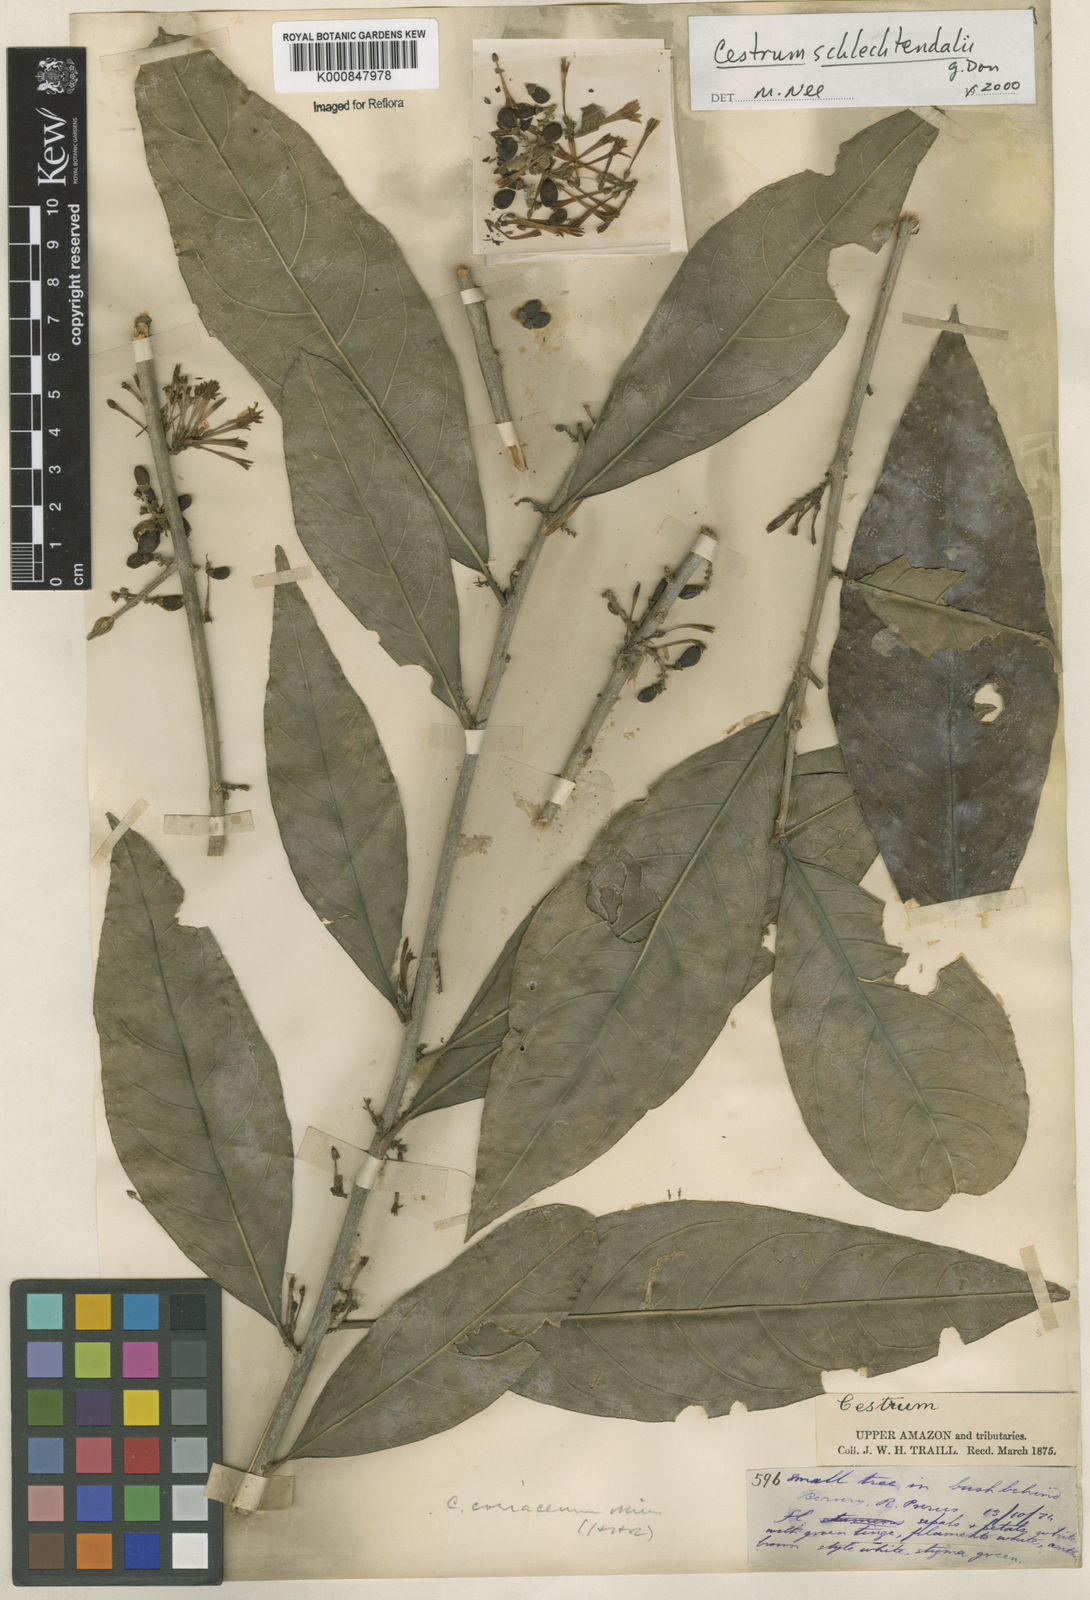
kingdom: Plantae
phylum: Tracheophyta
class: Magnoliopsida
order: Solanales
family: Solanaceae
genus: Cestrum
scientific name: Cestrum schlechtendalii
